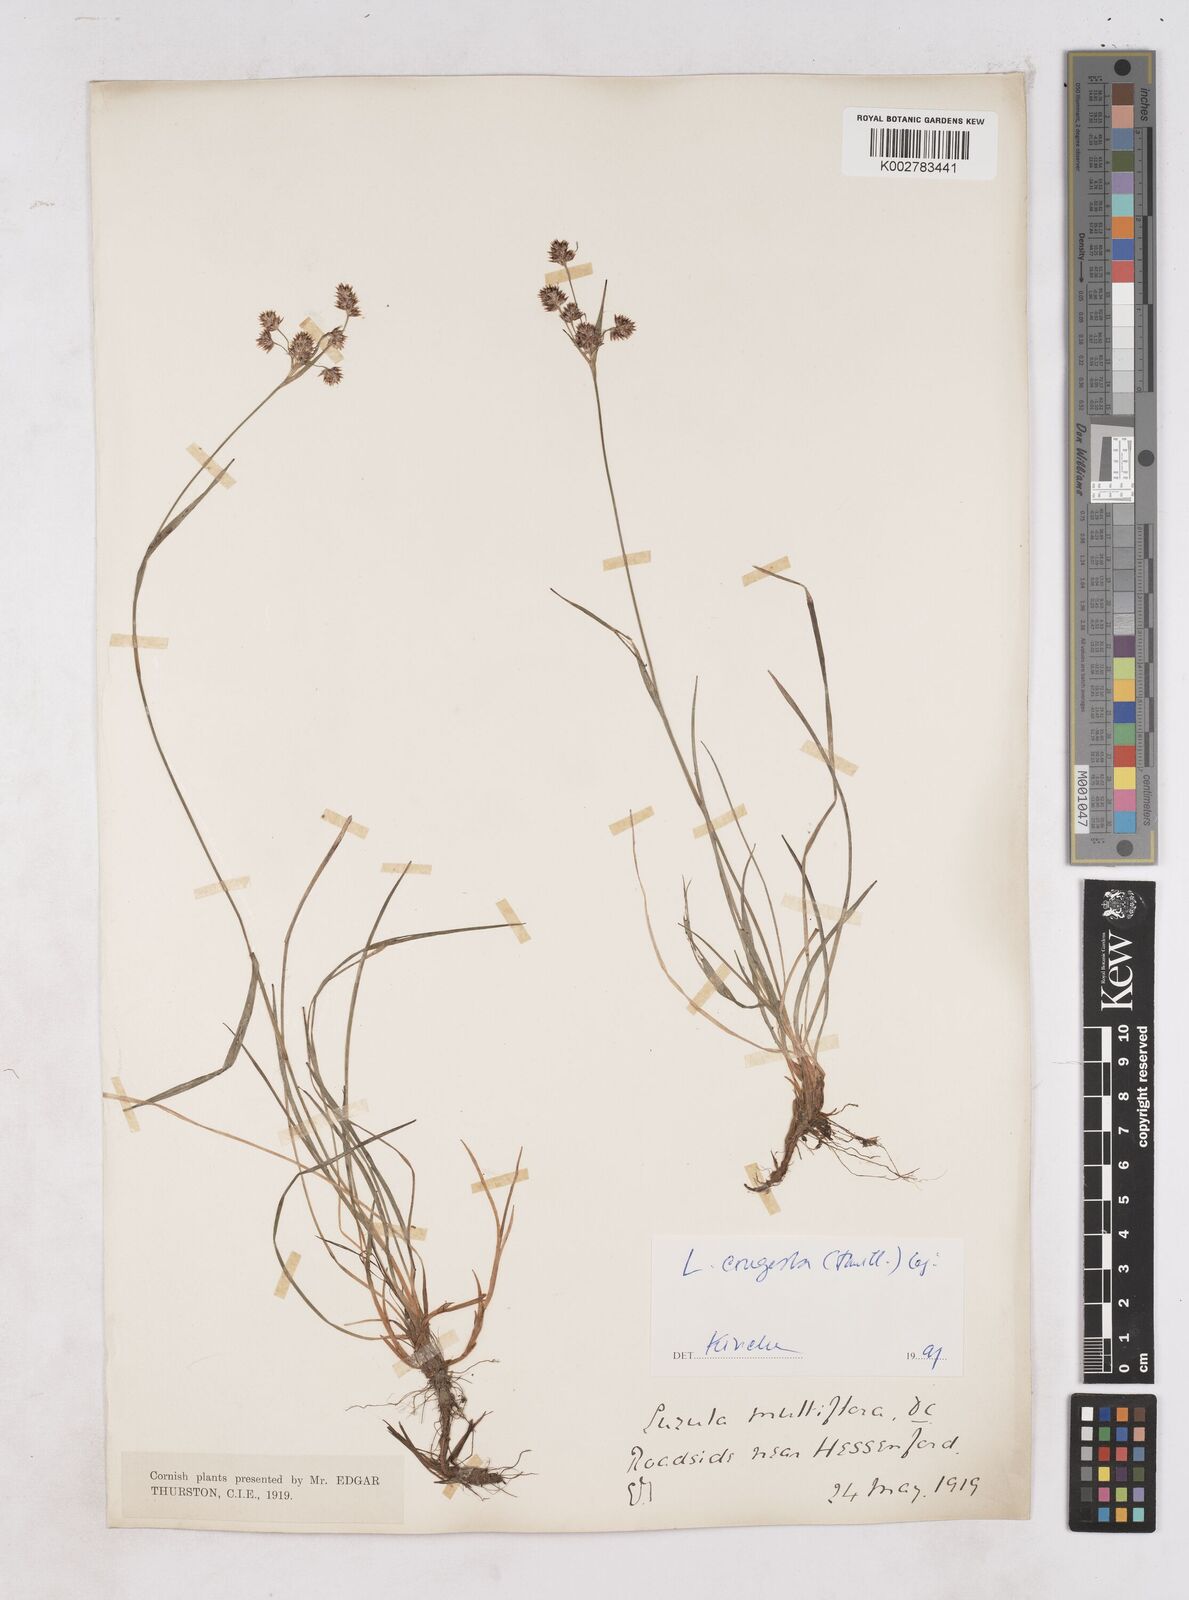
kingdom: Plantae
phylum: Tracheophyta
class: Liliopsida
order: Poales
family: Juncaceae
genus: Luzula
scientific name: Luzula campestris
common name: Field wood-rush
